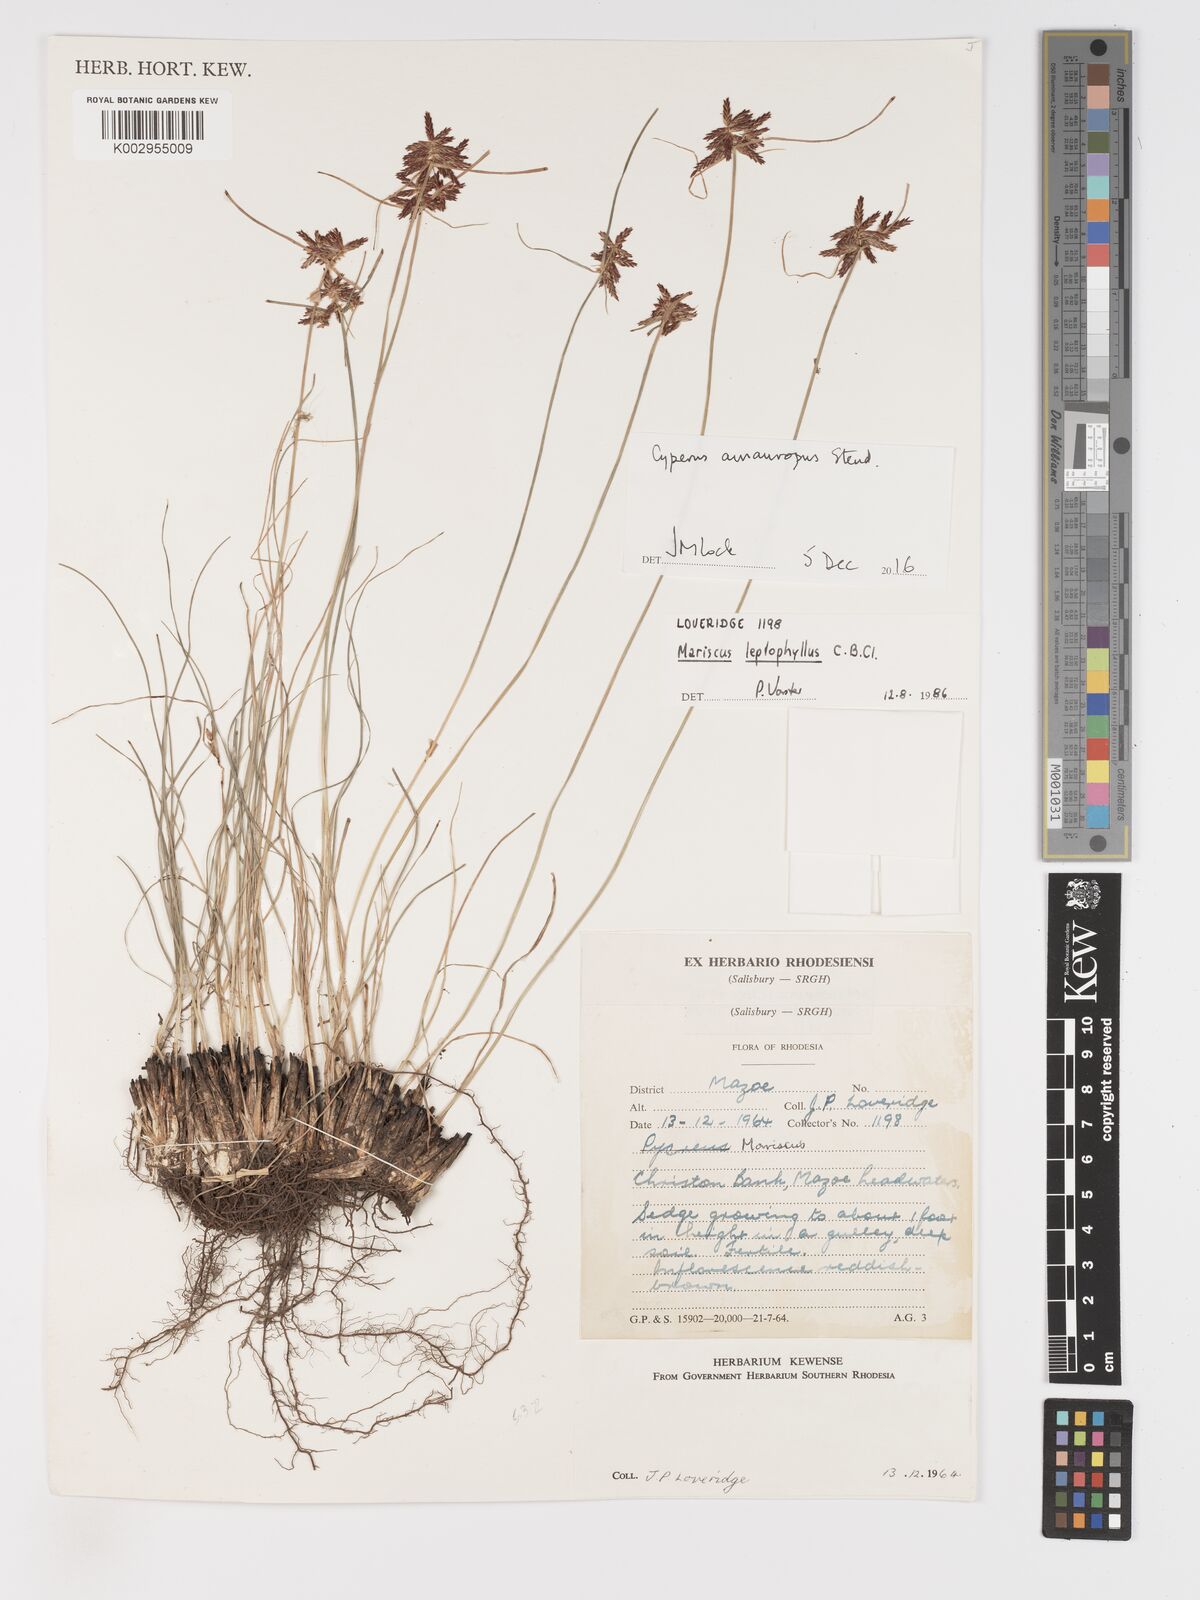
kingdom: Plantae
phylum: Tracheophyta
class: Liliopsida
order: Poales
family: Cyperaceae
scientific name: Cyperaceae
